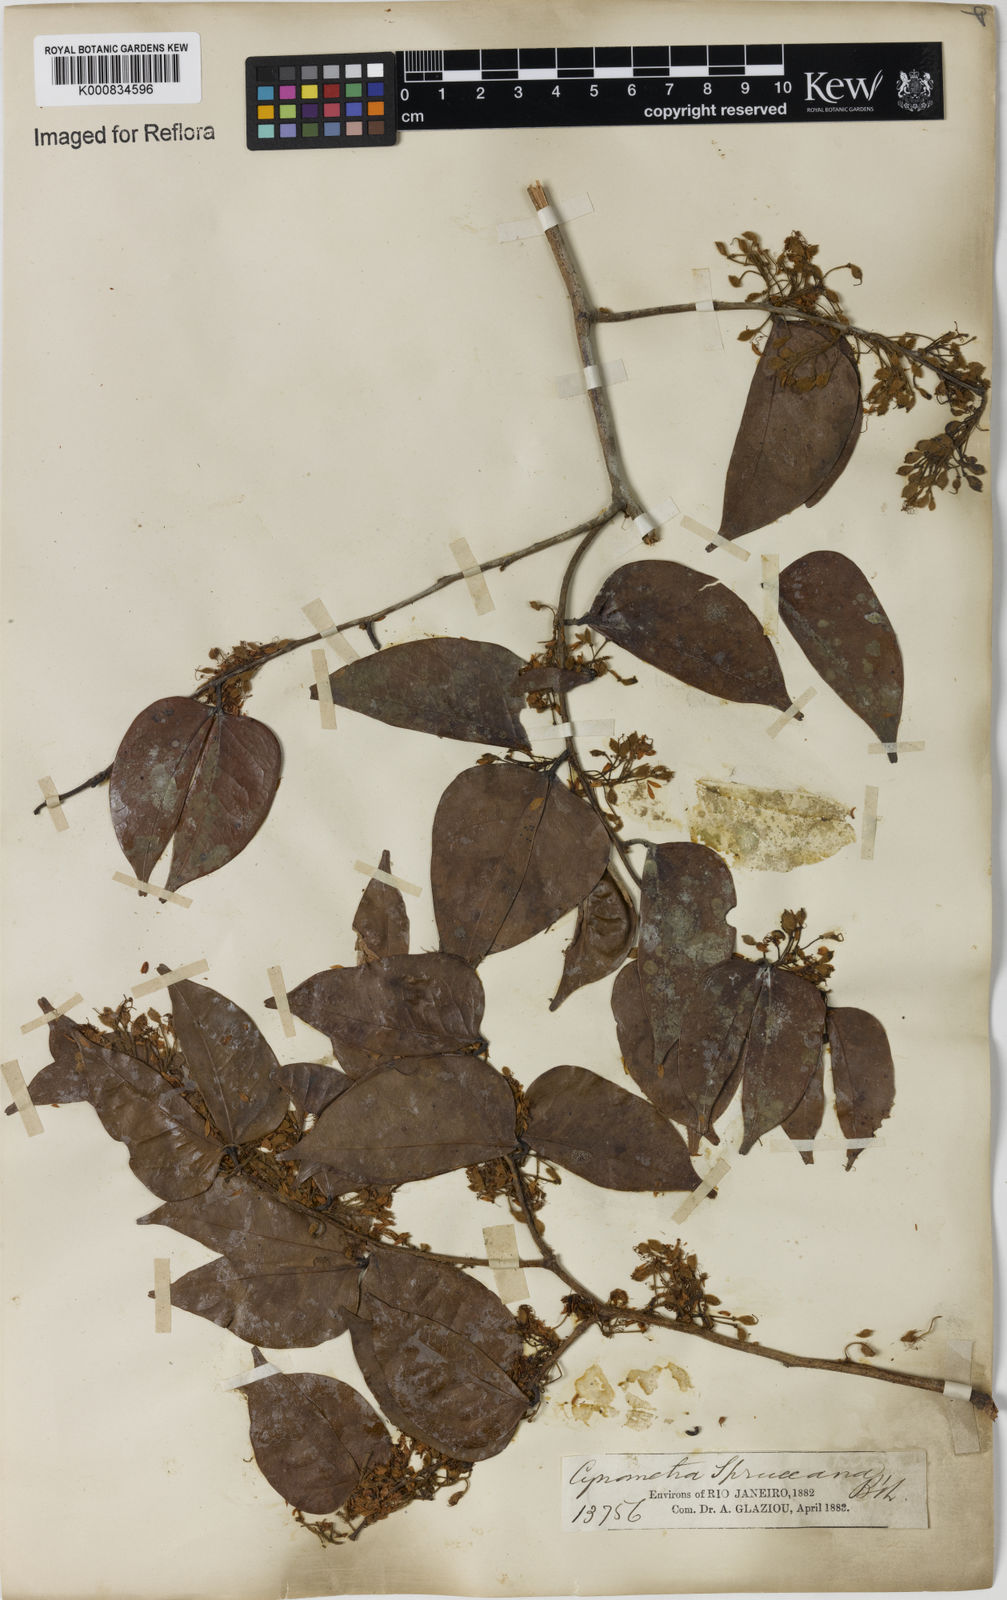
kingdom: Plantae
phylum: Tracheophyta
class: Magnoliopsida
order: Fabales
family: Fabaceae
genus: Cynometra
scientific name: Cynometra phaselocarpa
